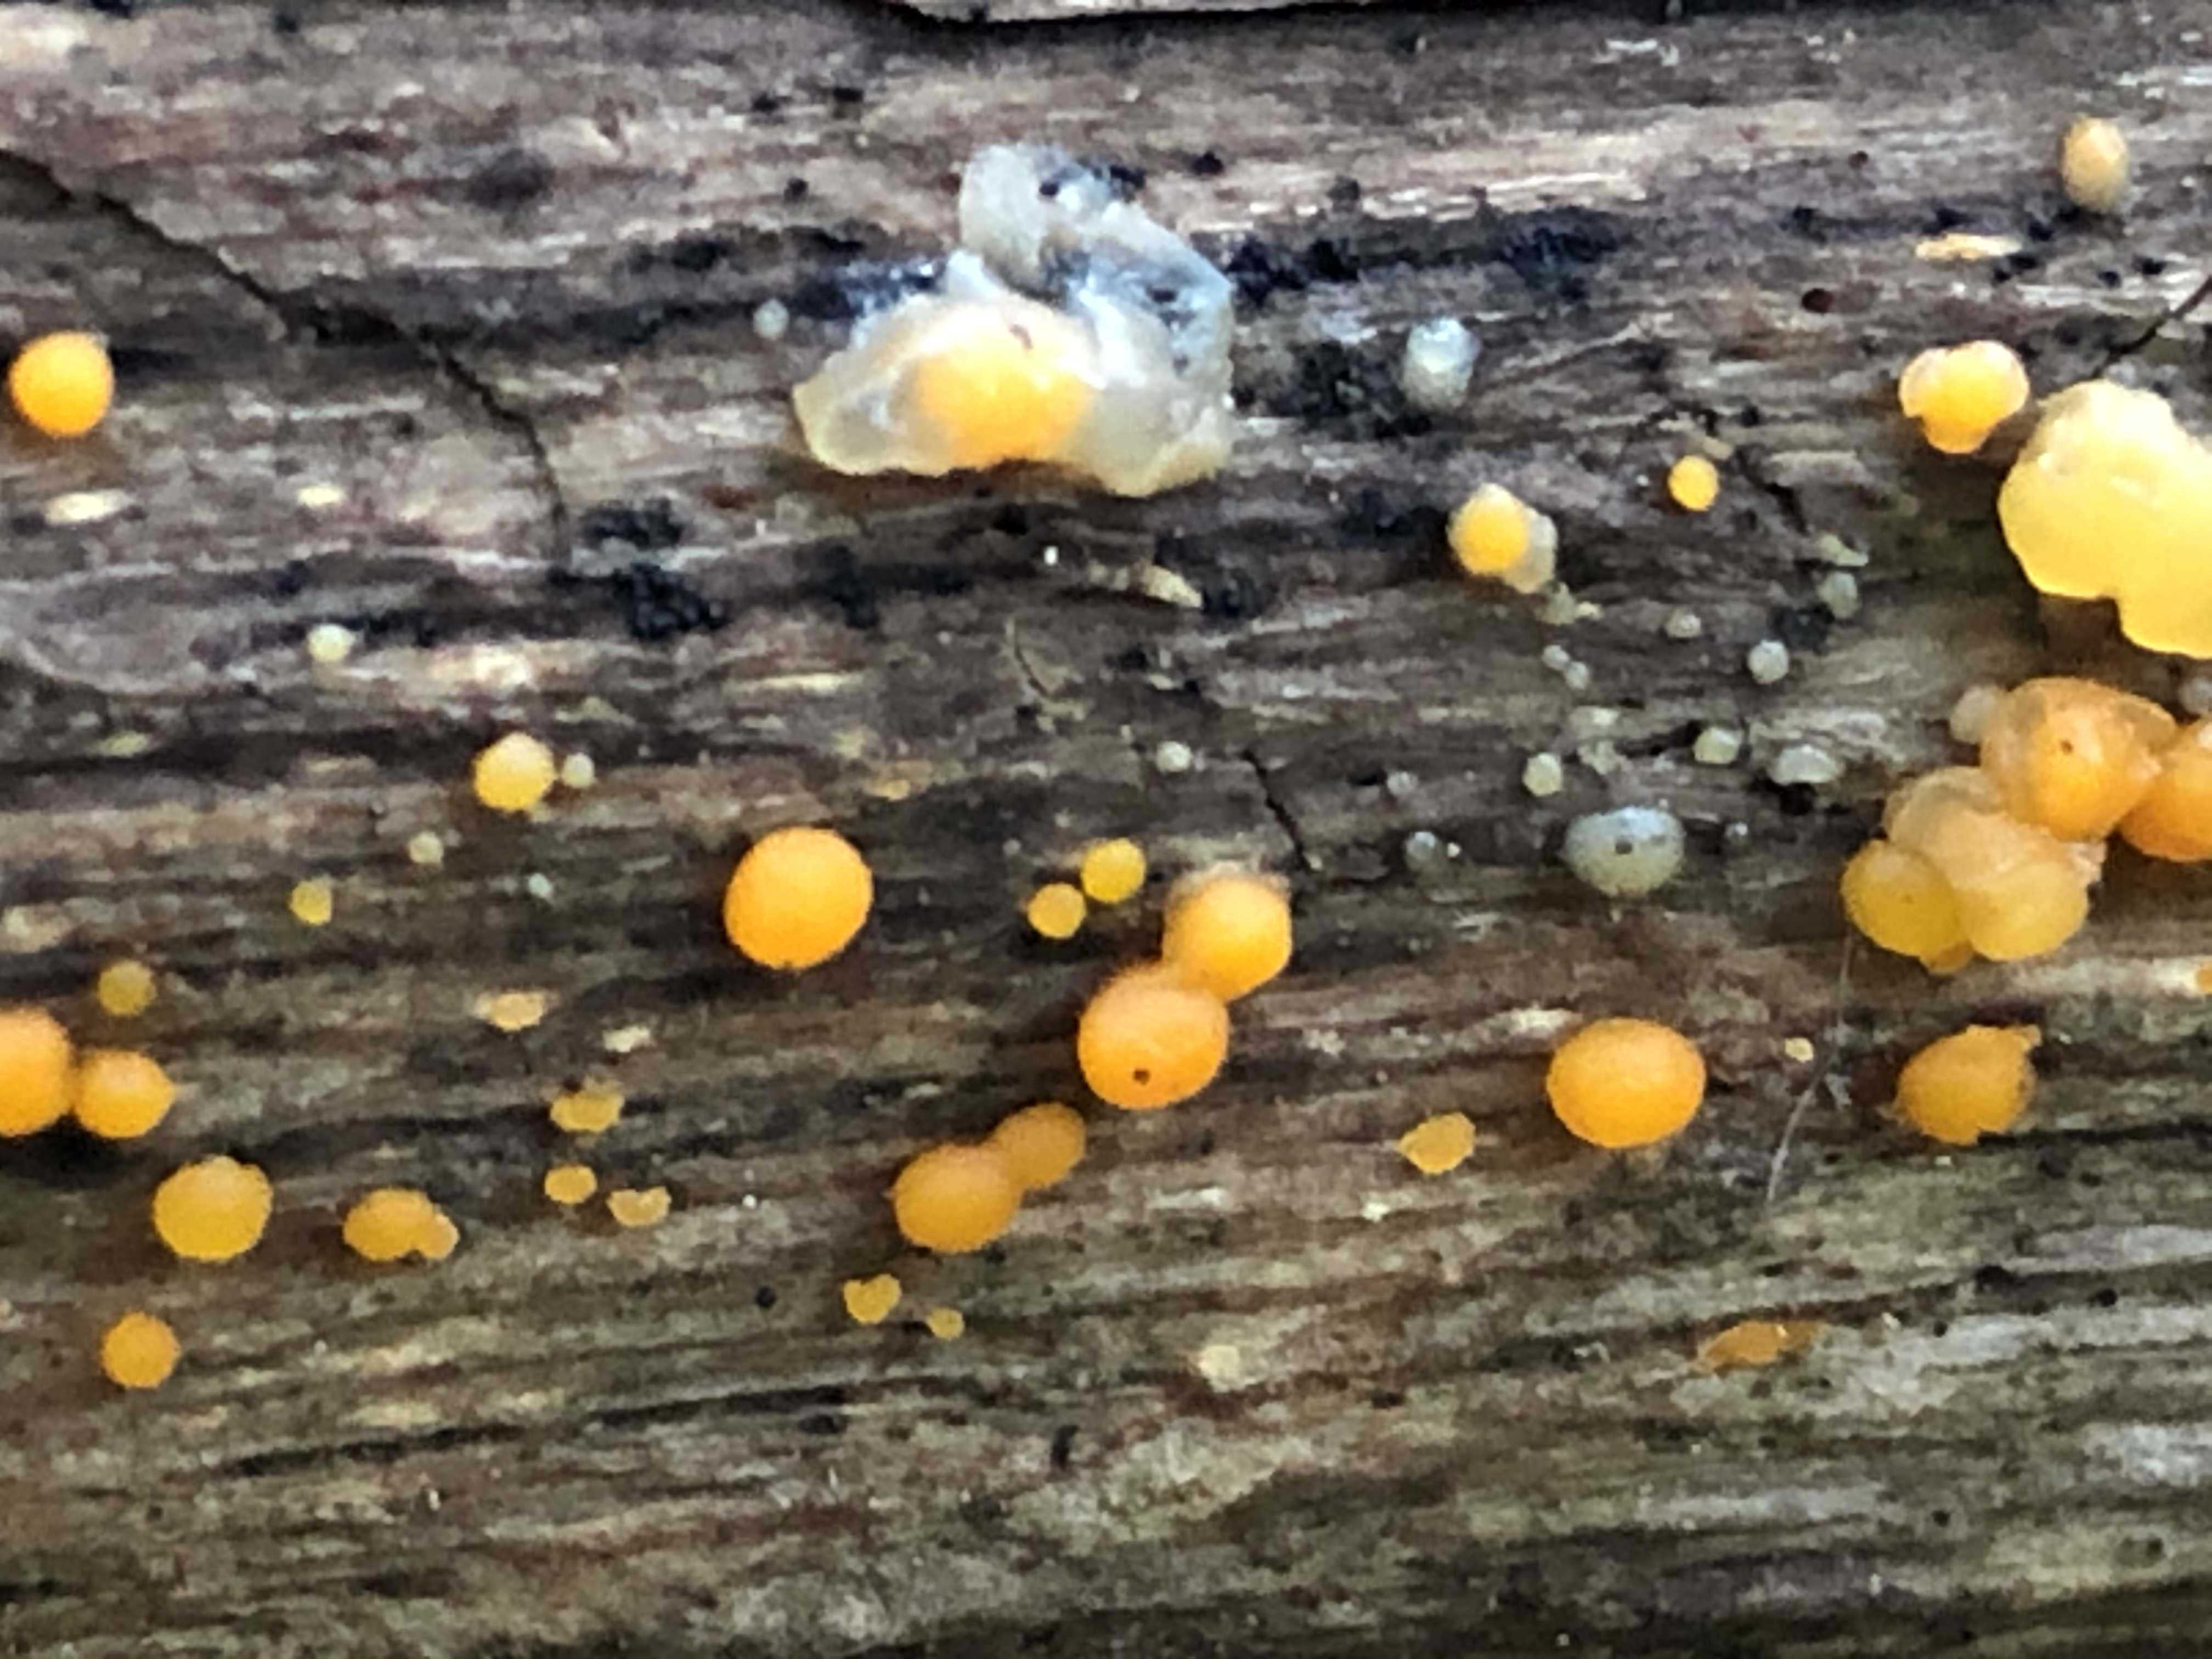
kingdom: Fungi
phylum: Basidiomycota
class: Dacrymycetes
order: Dacrymycetales
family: Dacrymycetaceae
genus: Dacrymyces
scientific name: Dacrymyces stillatus
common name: almindelig tåresvamp
